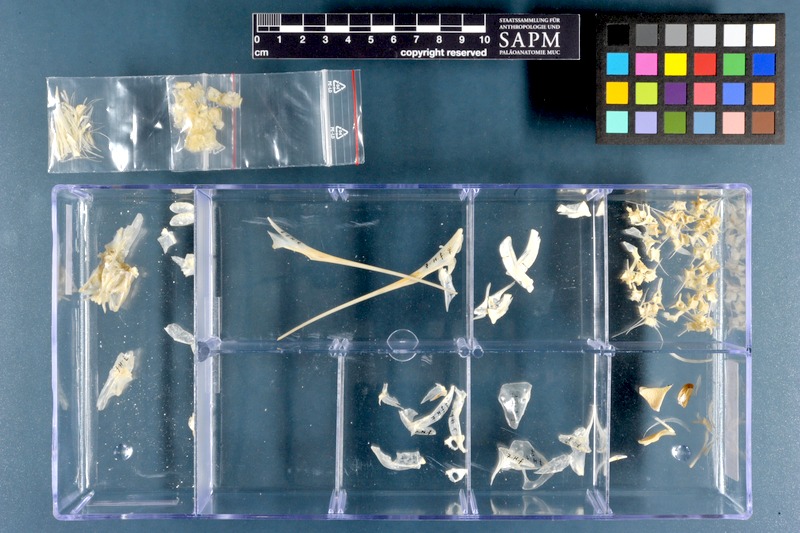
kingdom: Animalia
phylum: Chordata
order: Beloniformes
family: Hemiramphidae
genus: Hemiramphus
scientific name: Hemiramphus far
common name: Black-barred halfbeak
